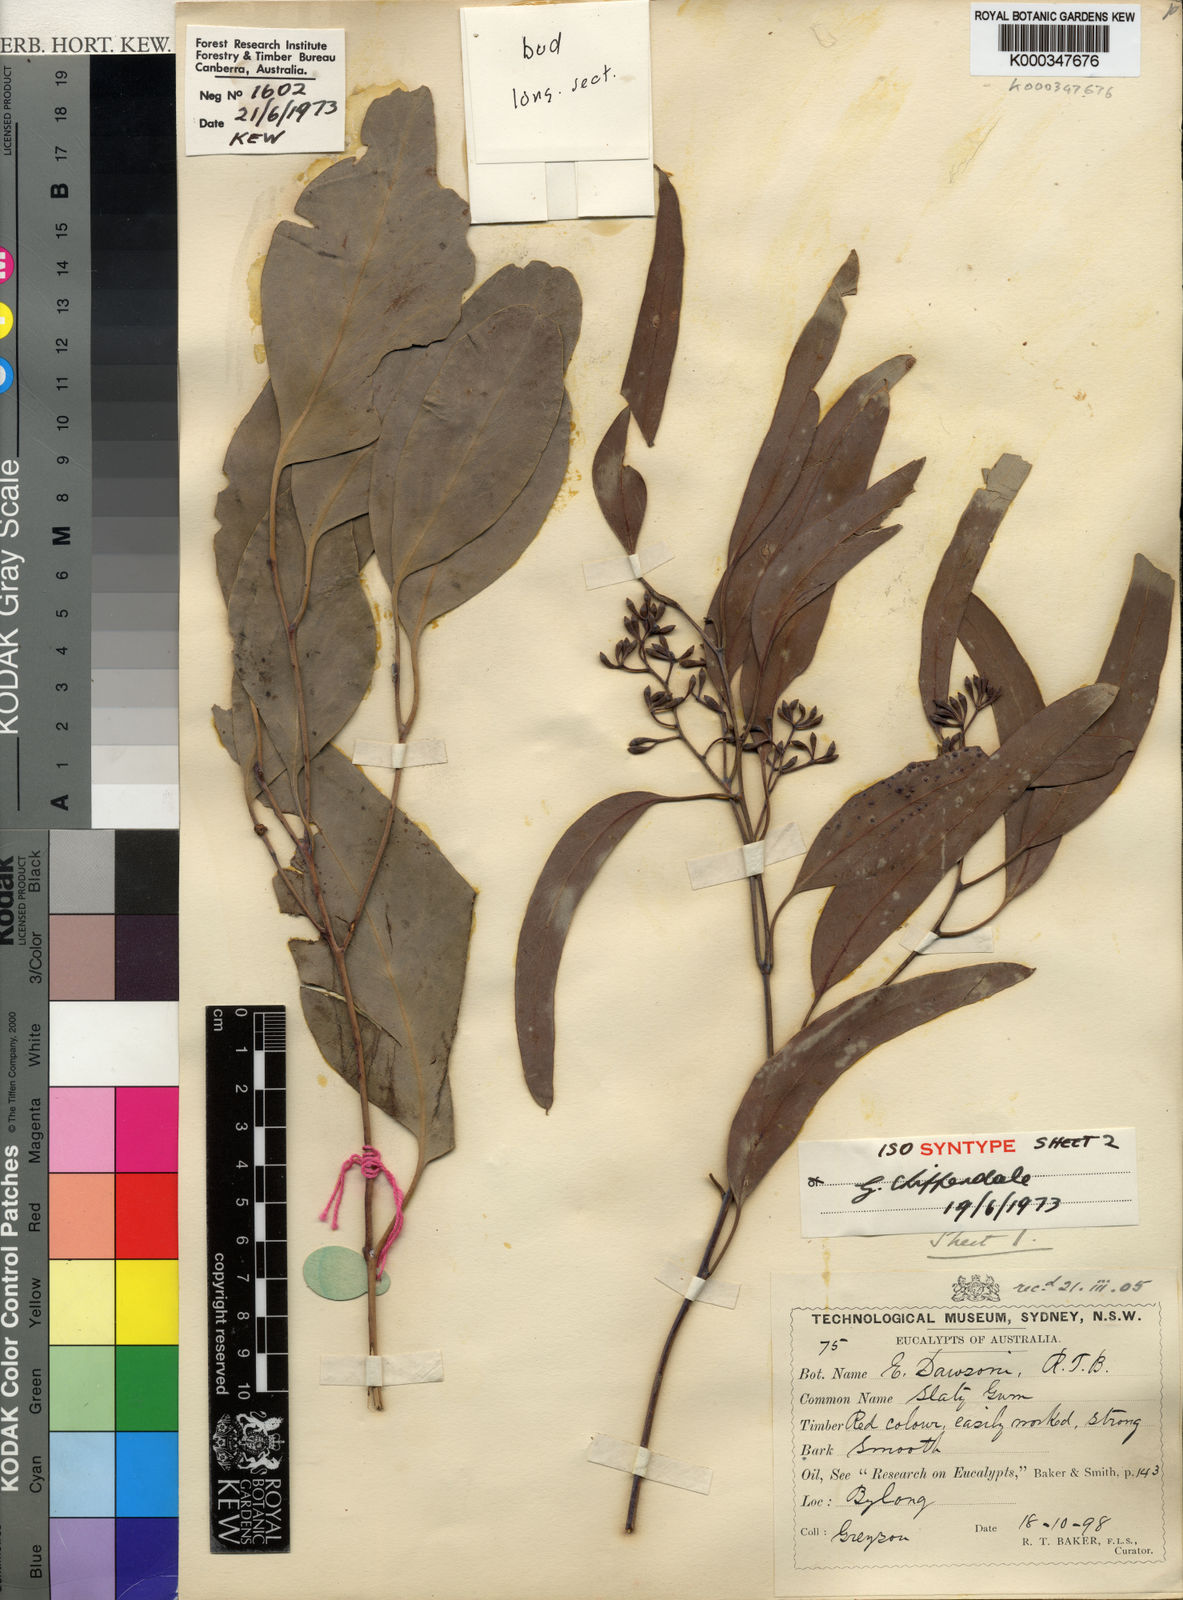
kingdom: Plantae
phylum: Tracheophyta
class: Magnoliopsida
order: Myrtales
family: Myrtaceae
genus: Eucalyptus
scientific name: Eucalyptus dawsonii
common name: Slaty-box
